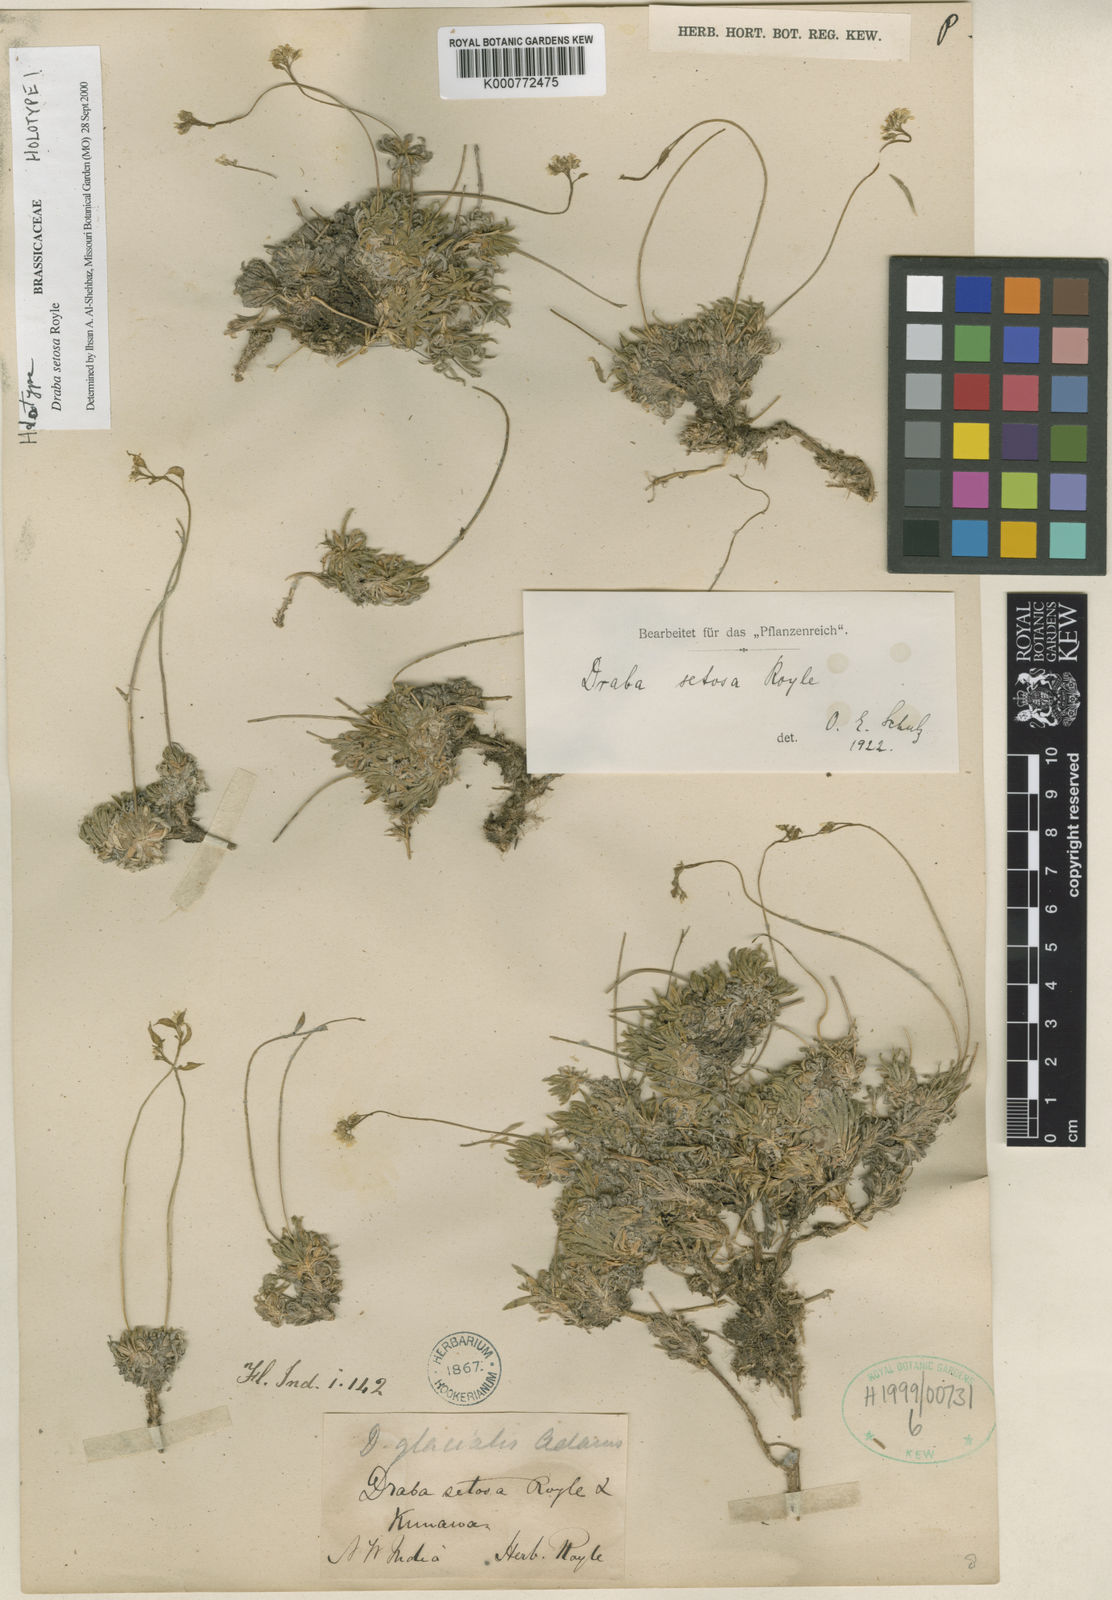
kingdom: Plantae
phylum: Tracheophyta
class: Magnoliopsida
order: Brassicales
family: Brassicaceae
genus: Draba
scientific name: Draba setosa
